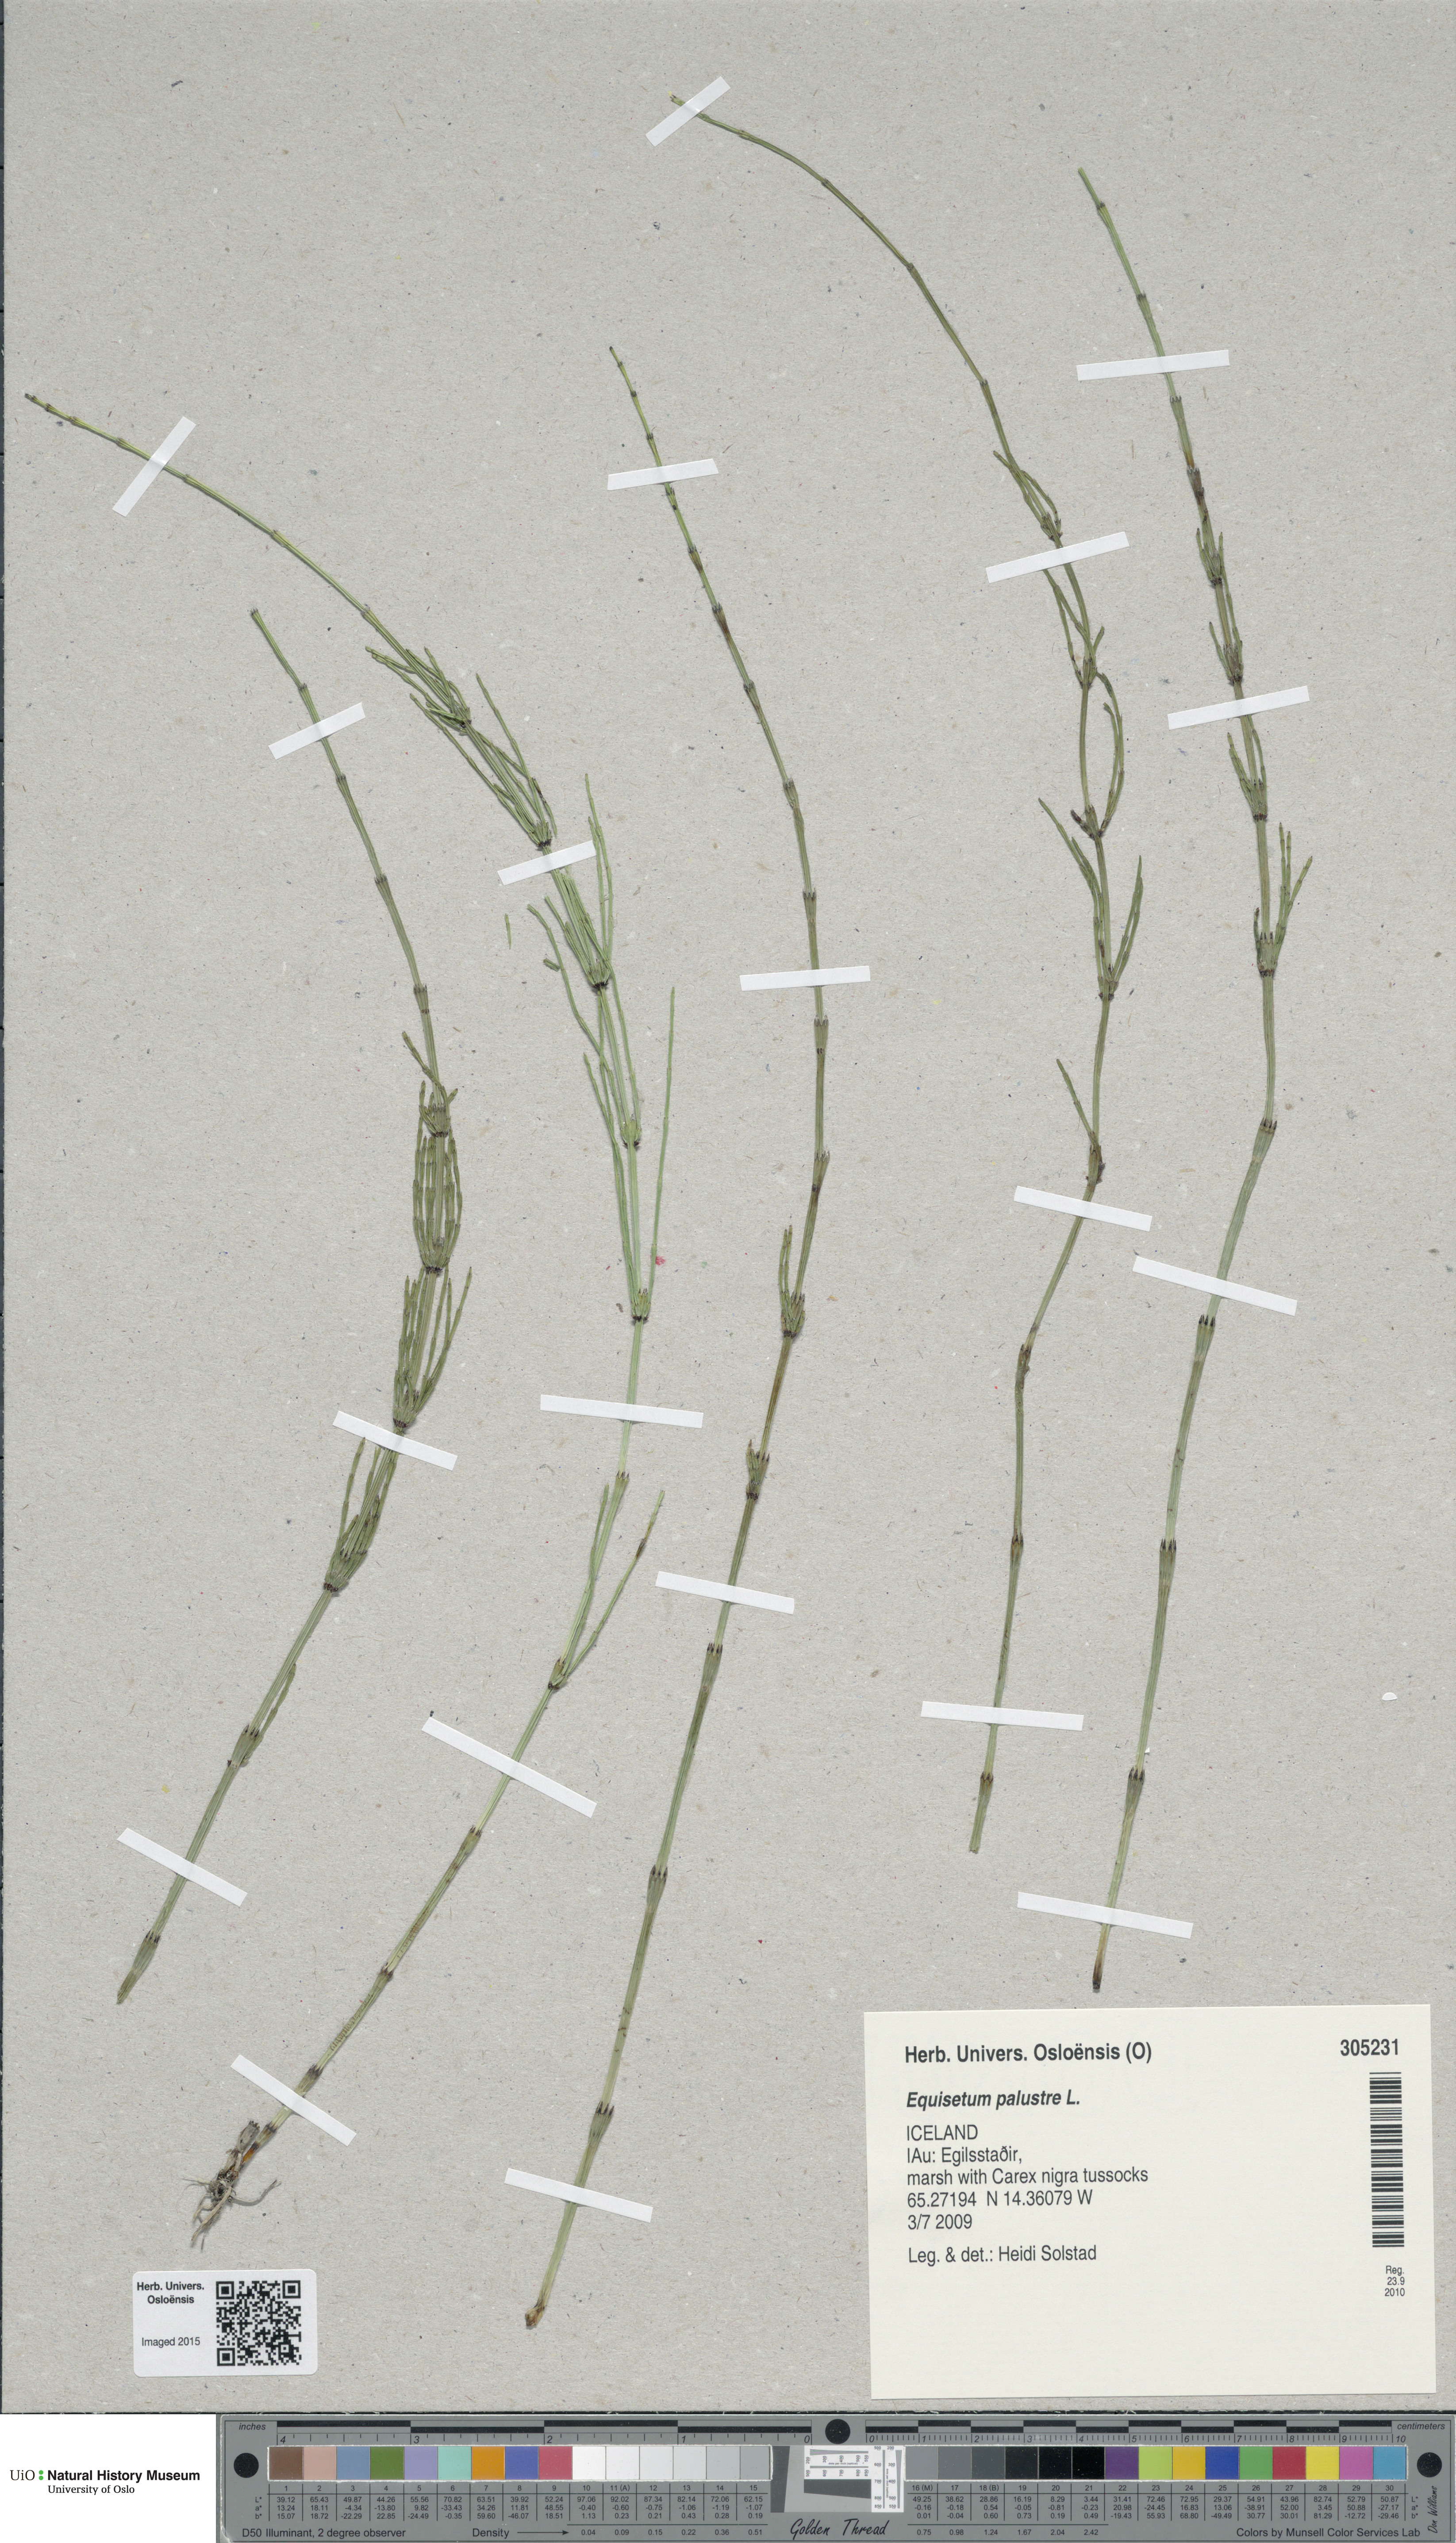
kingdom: Plantae
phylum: Tracheophyta
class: Polypodiopsida
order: Equisetales
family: Equisetaceae
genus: Equisetum
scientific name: Equisetum palustre
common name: Marsh horsetail
